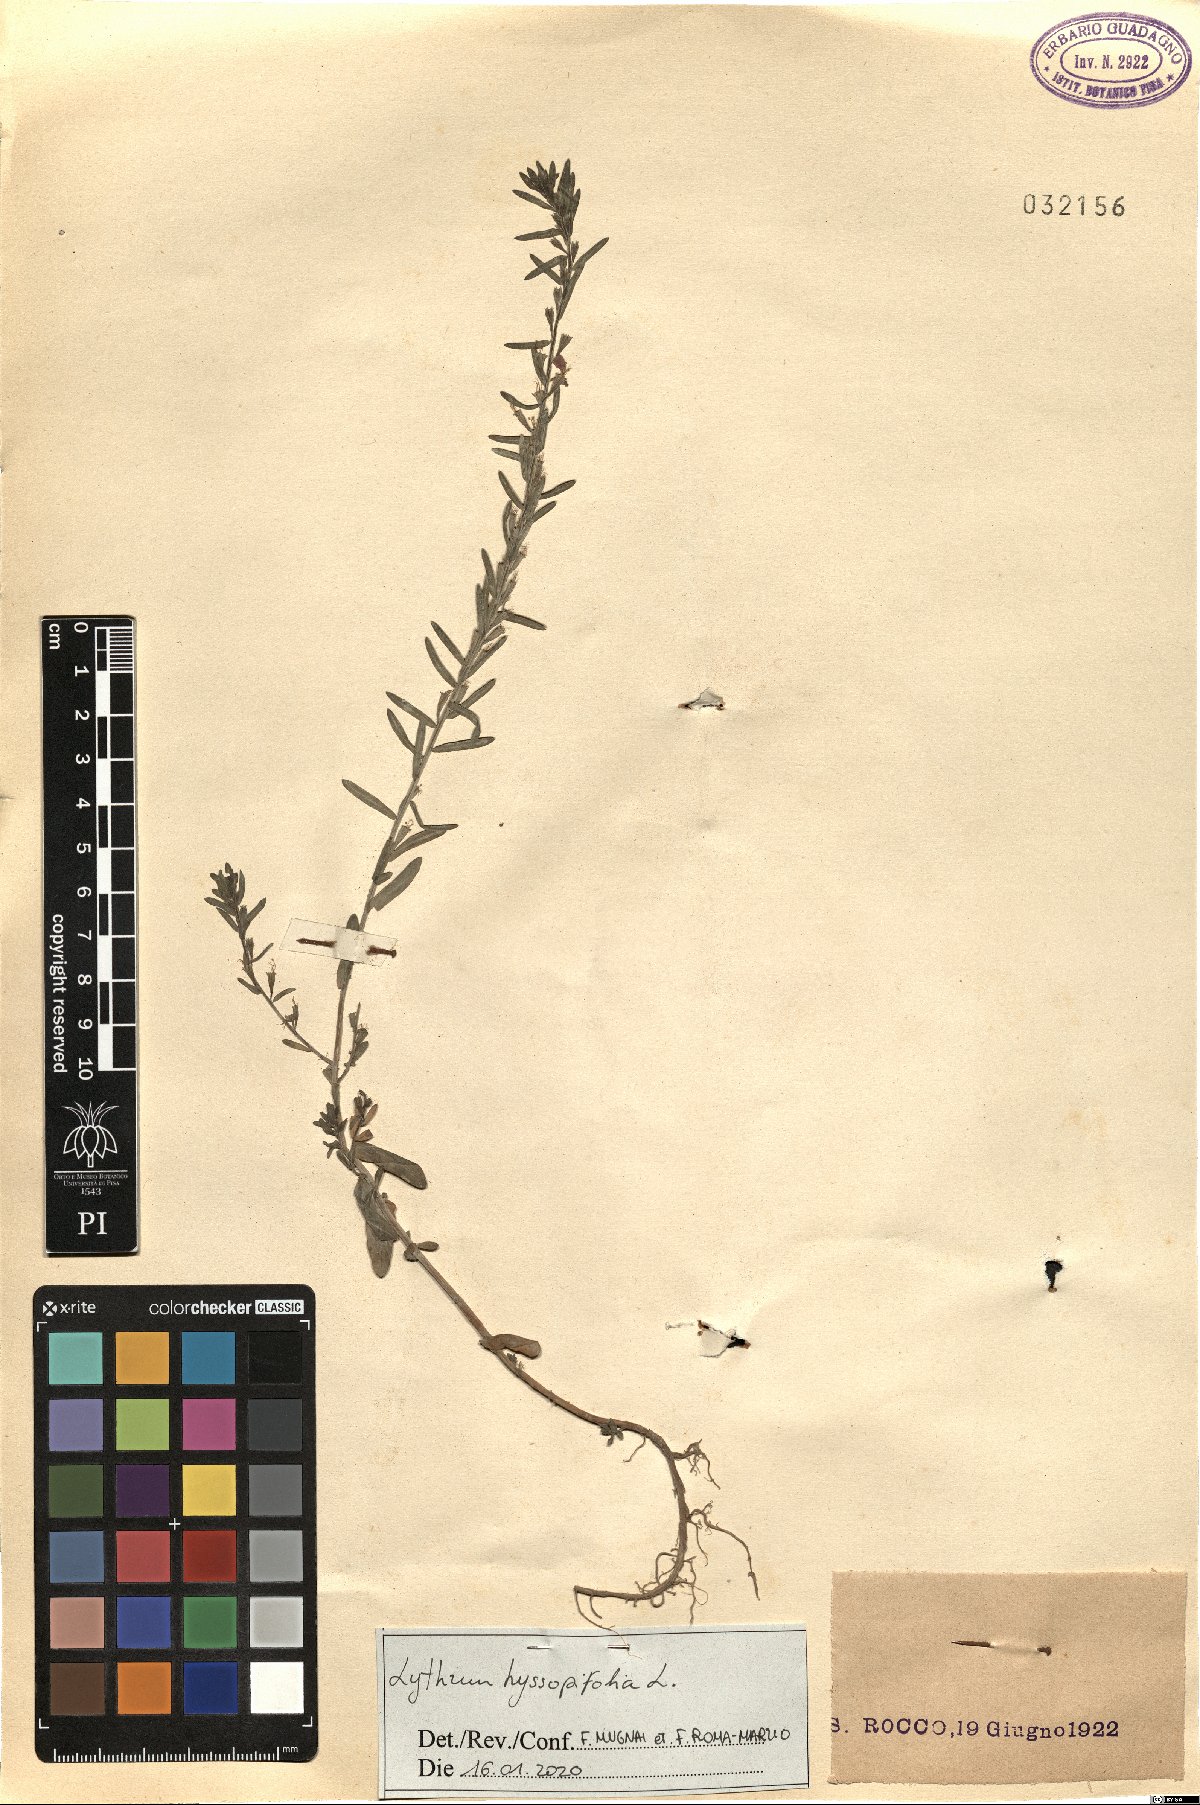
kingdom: Plantae
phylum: Tracheophyta
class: Magnoliopsida
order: Myrtales
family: Lythraceae
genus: Lythrum
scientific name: Lythrum hyssopifolia
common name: Grass-poly
